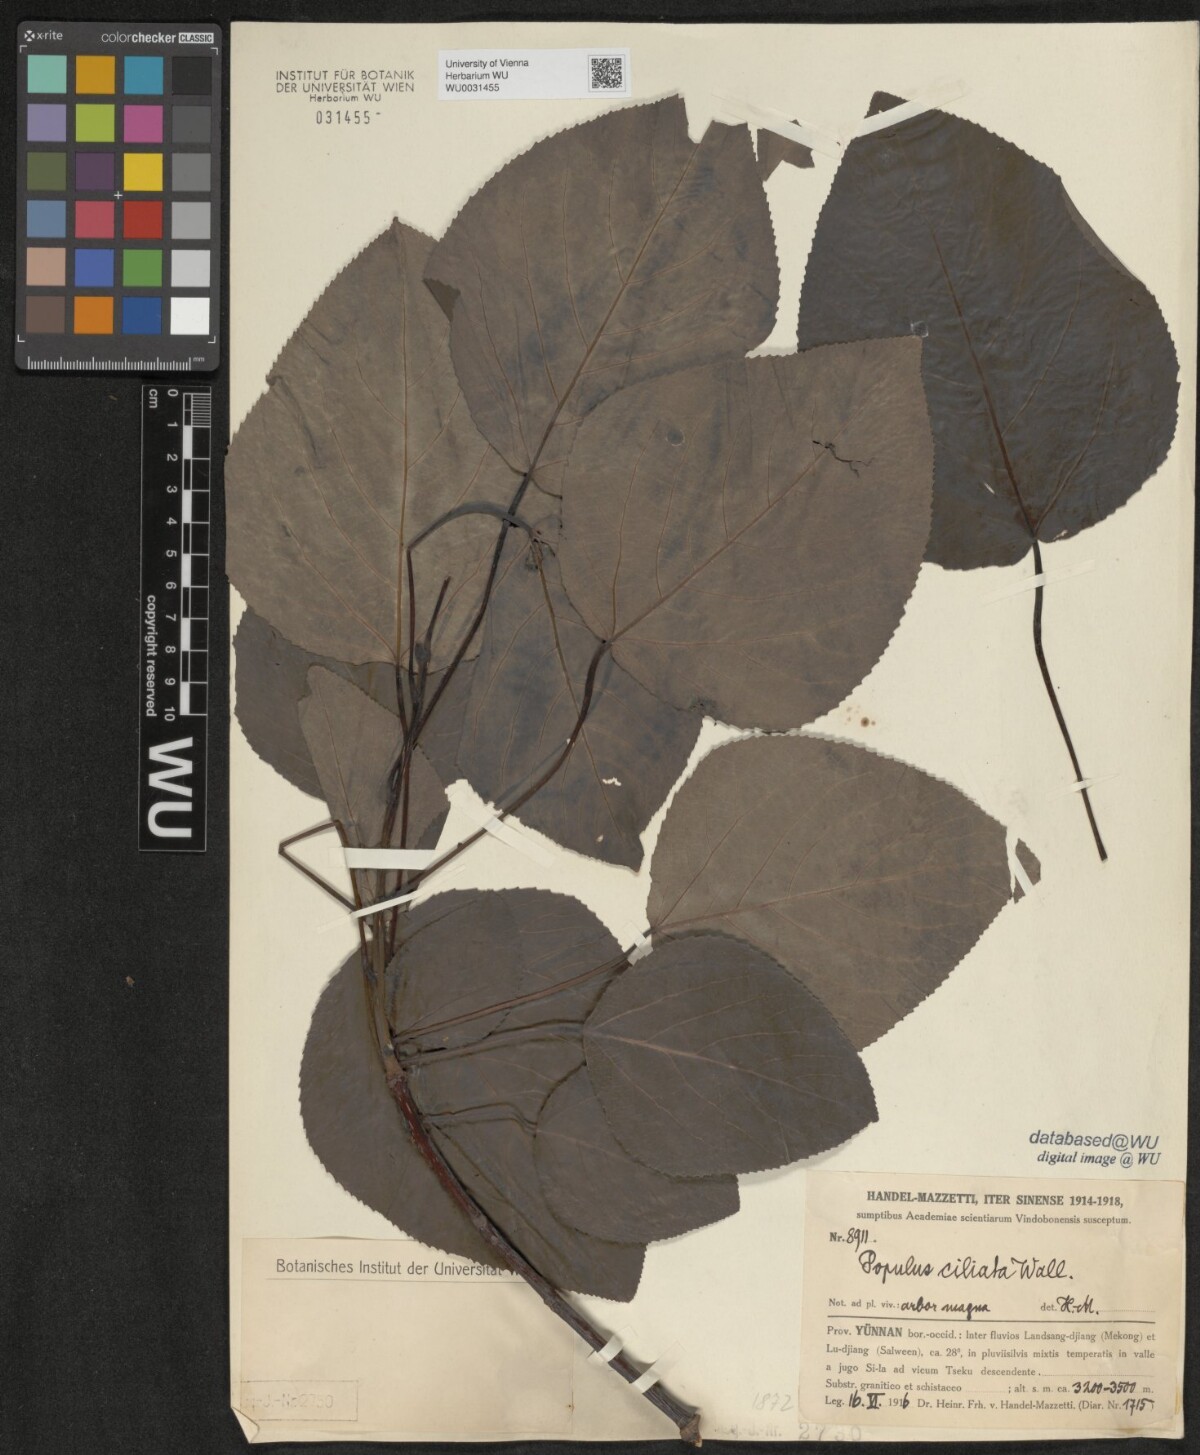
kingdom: Plantae
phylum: Tracheophyta
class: Magnoliopsida
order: Malpighiales
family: Salicaceae
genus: Populus
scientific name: Populus ciliata
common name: Himalayan poplar
